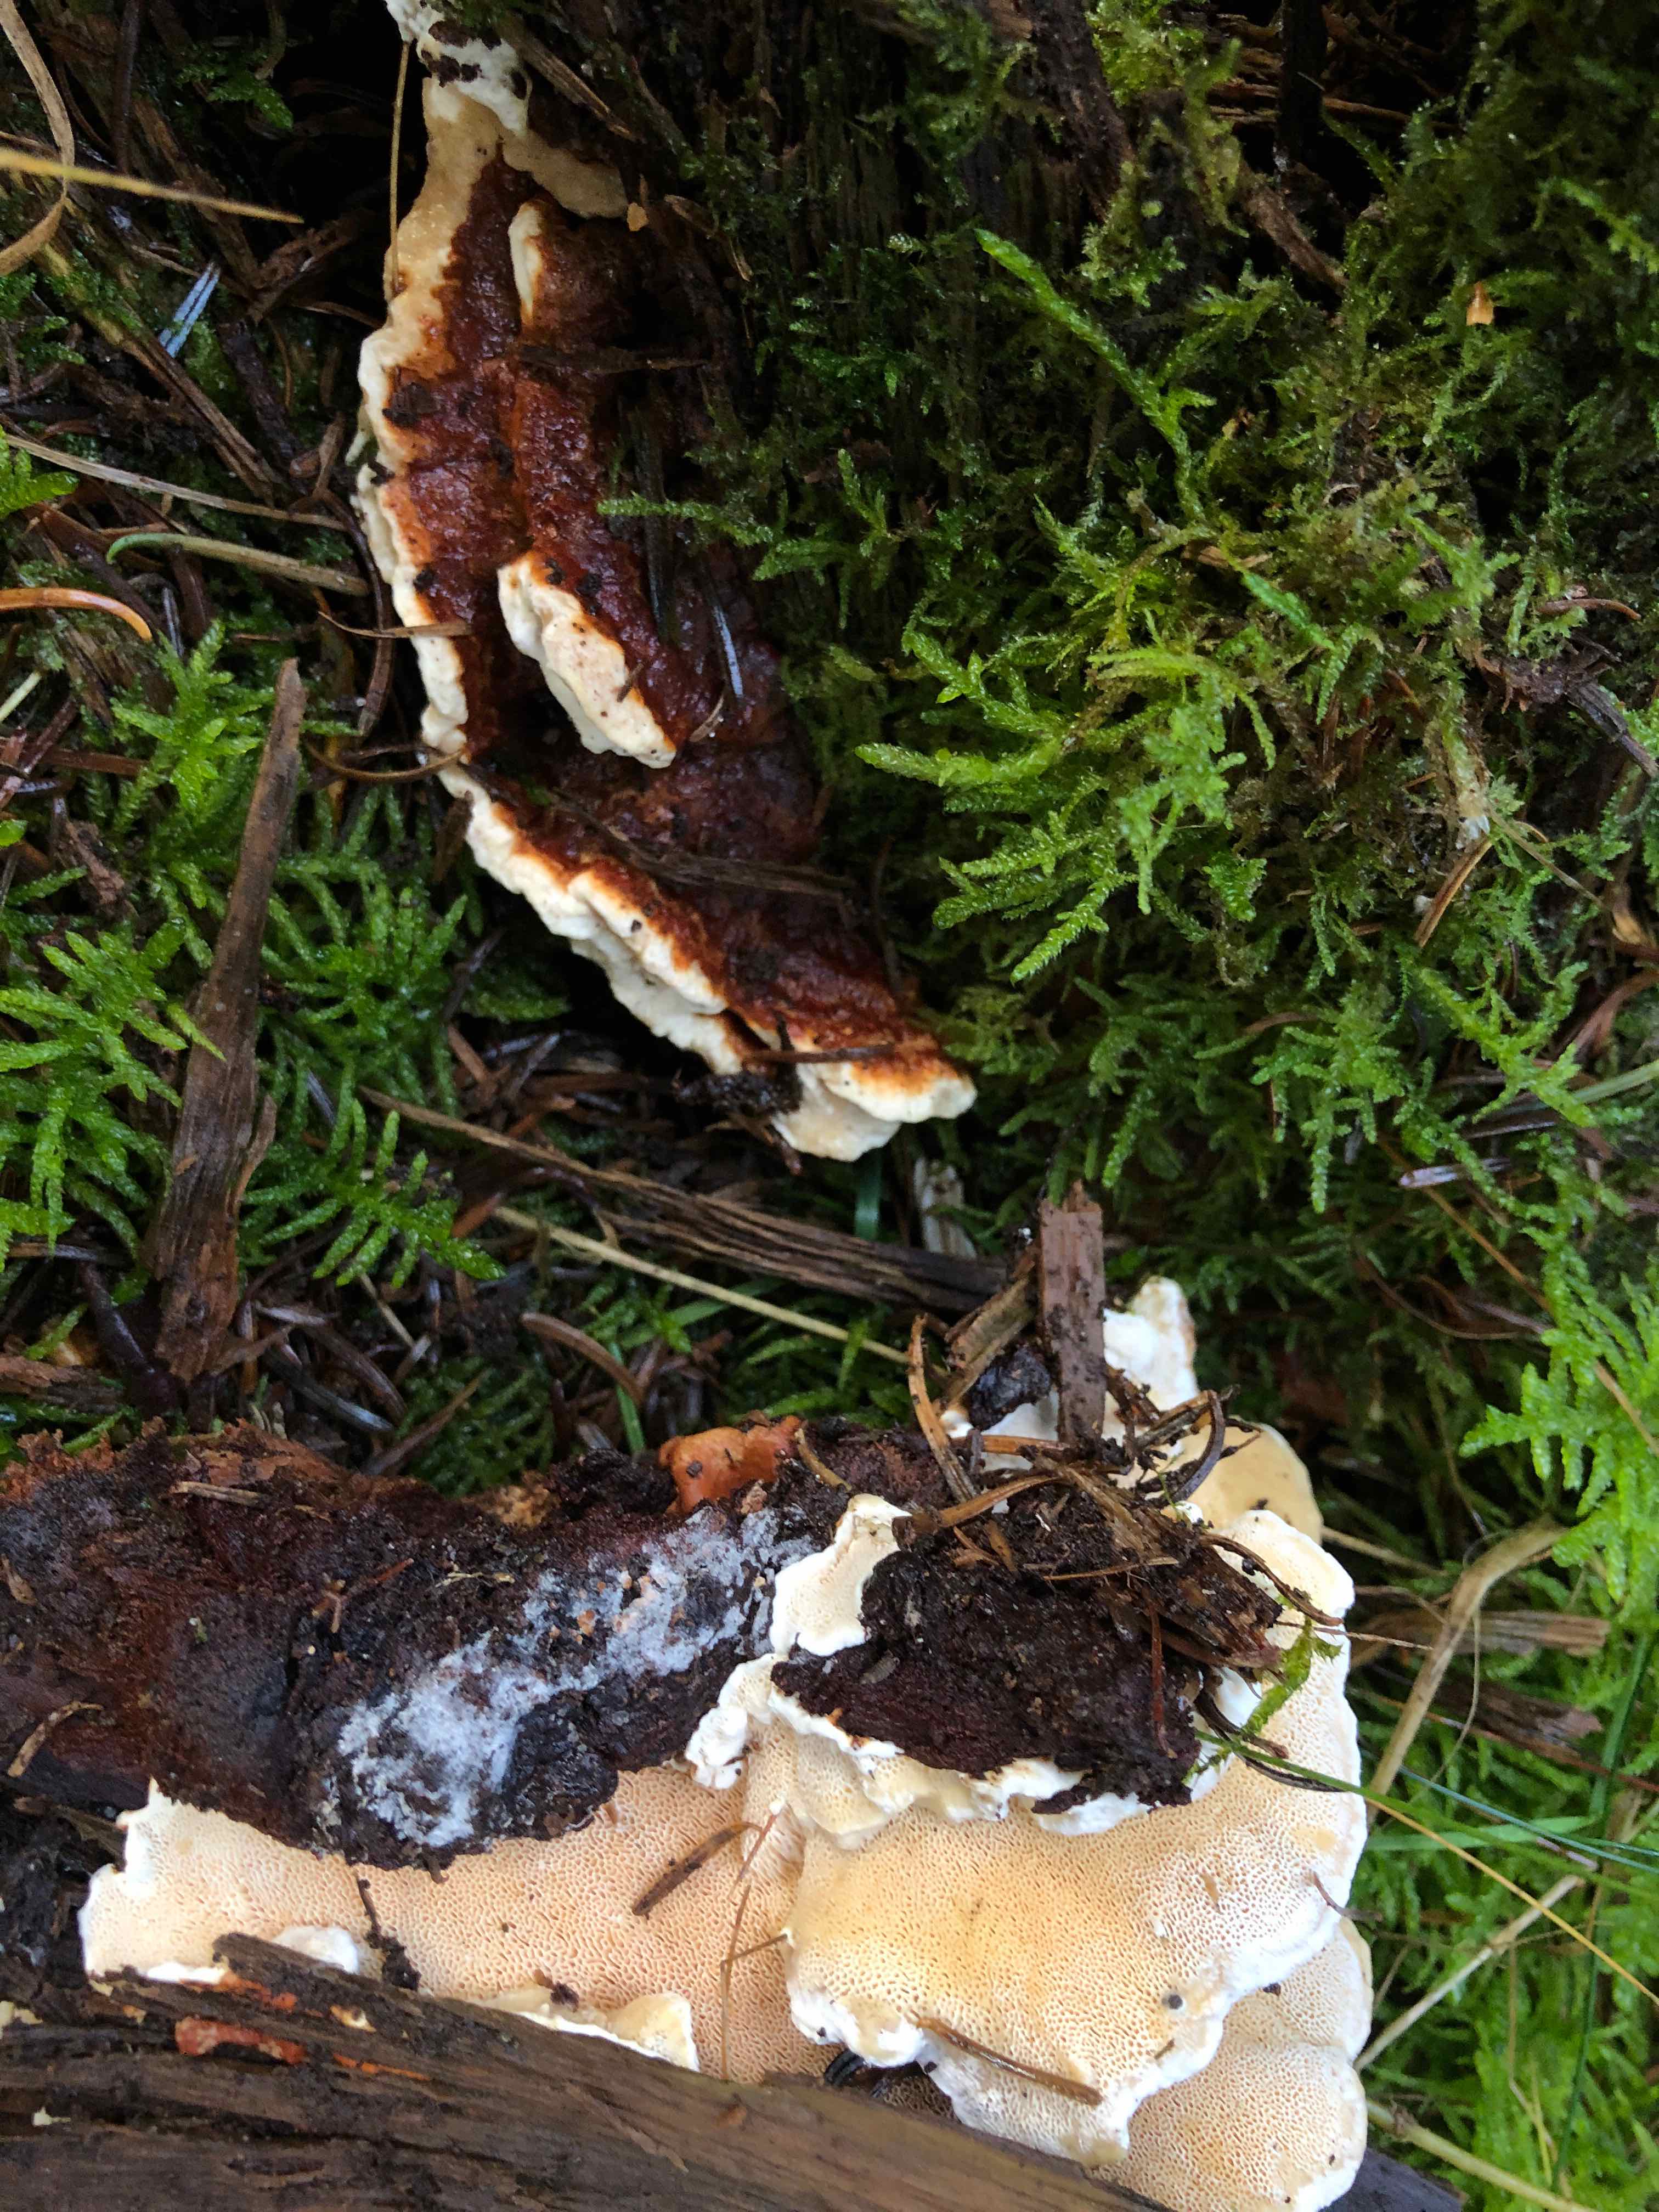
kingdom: Fungi
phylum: Basidiomycota
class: Agaricomycetes
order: Russulales
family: Bondarzewiaceae
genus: Heterobasidion
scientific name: Heterobasidion annosum
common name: almindelig rodfordærver
